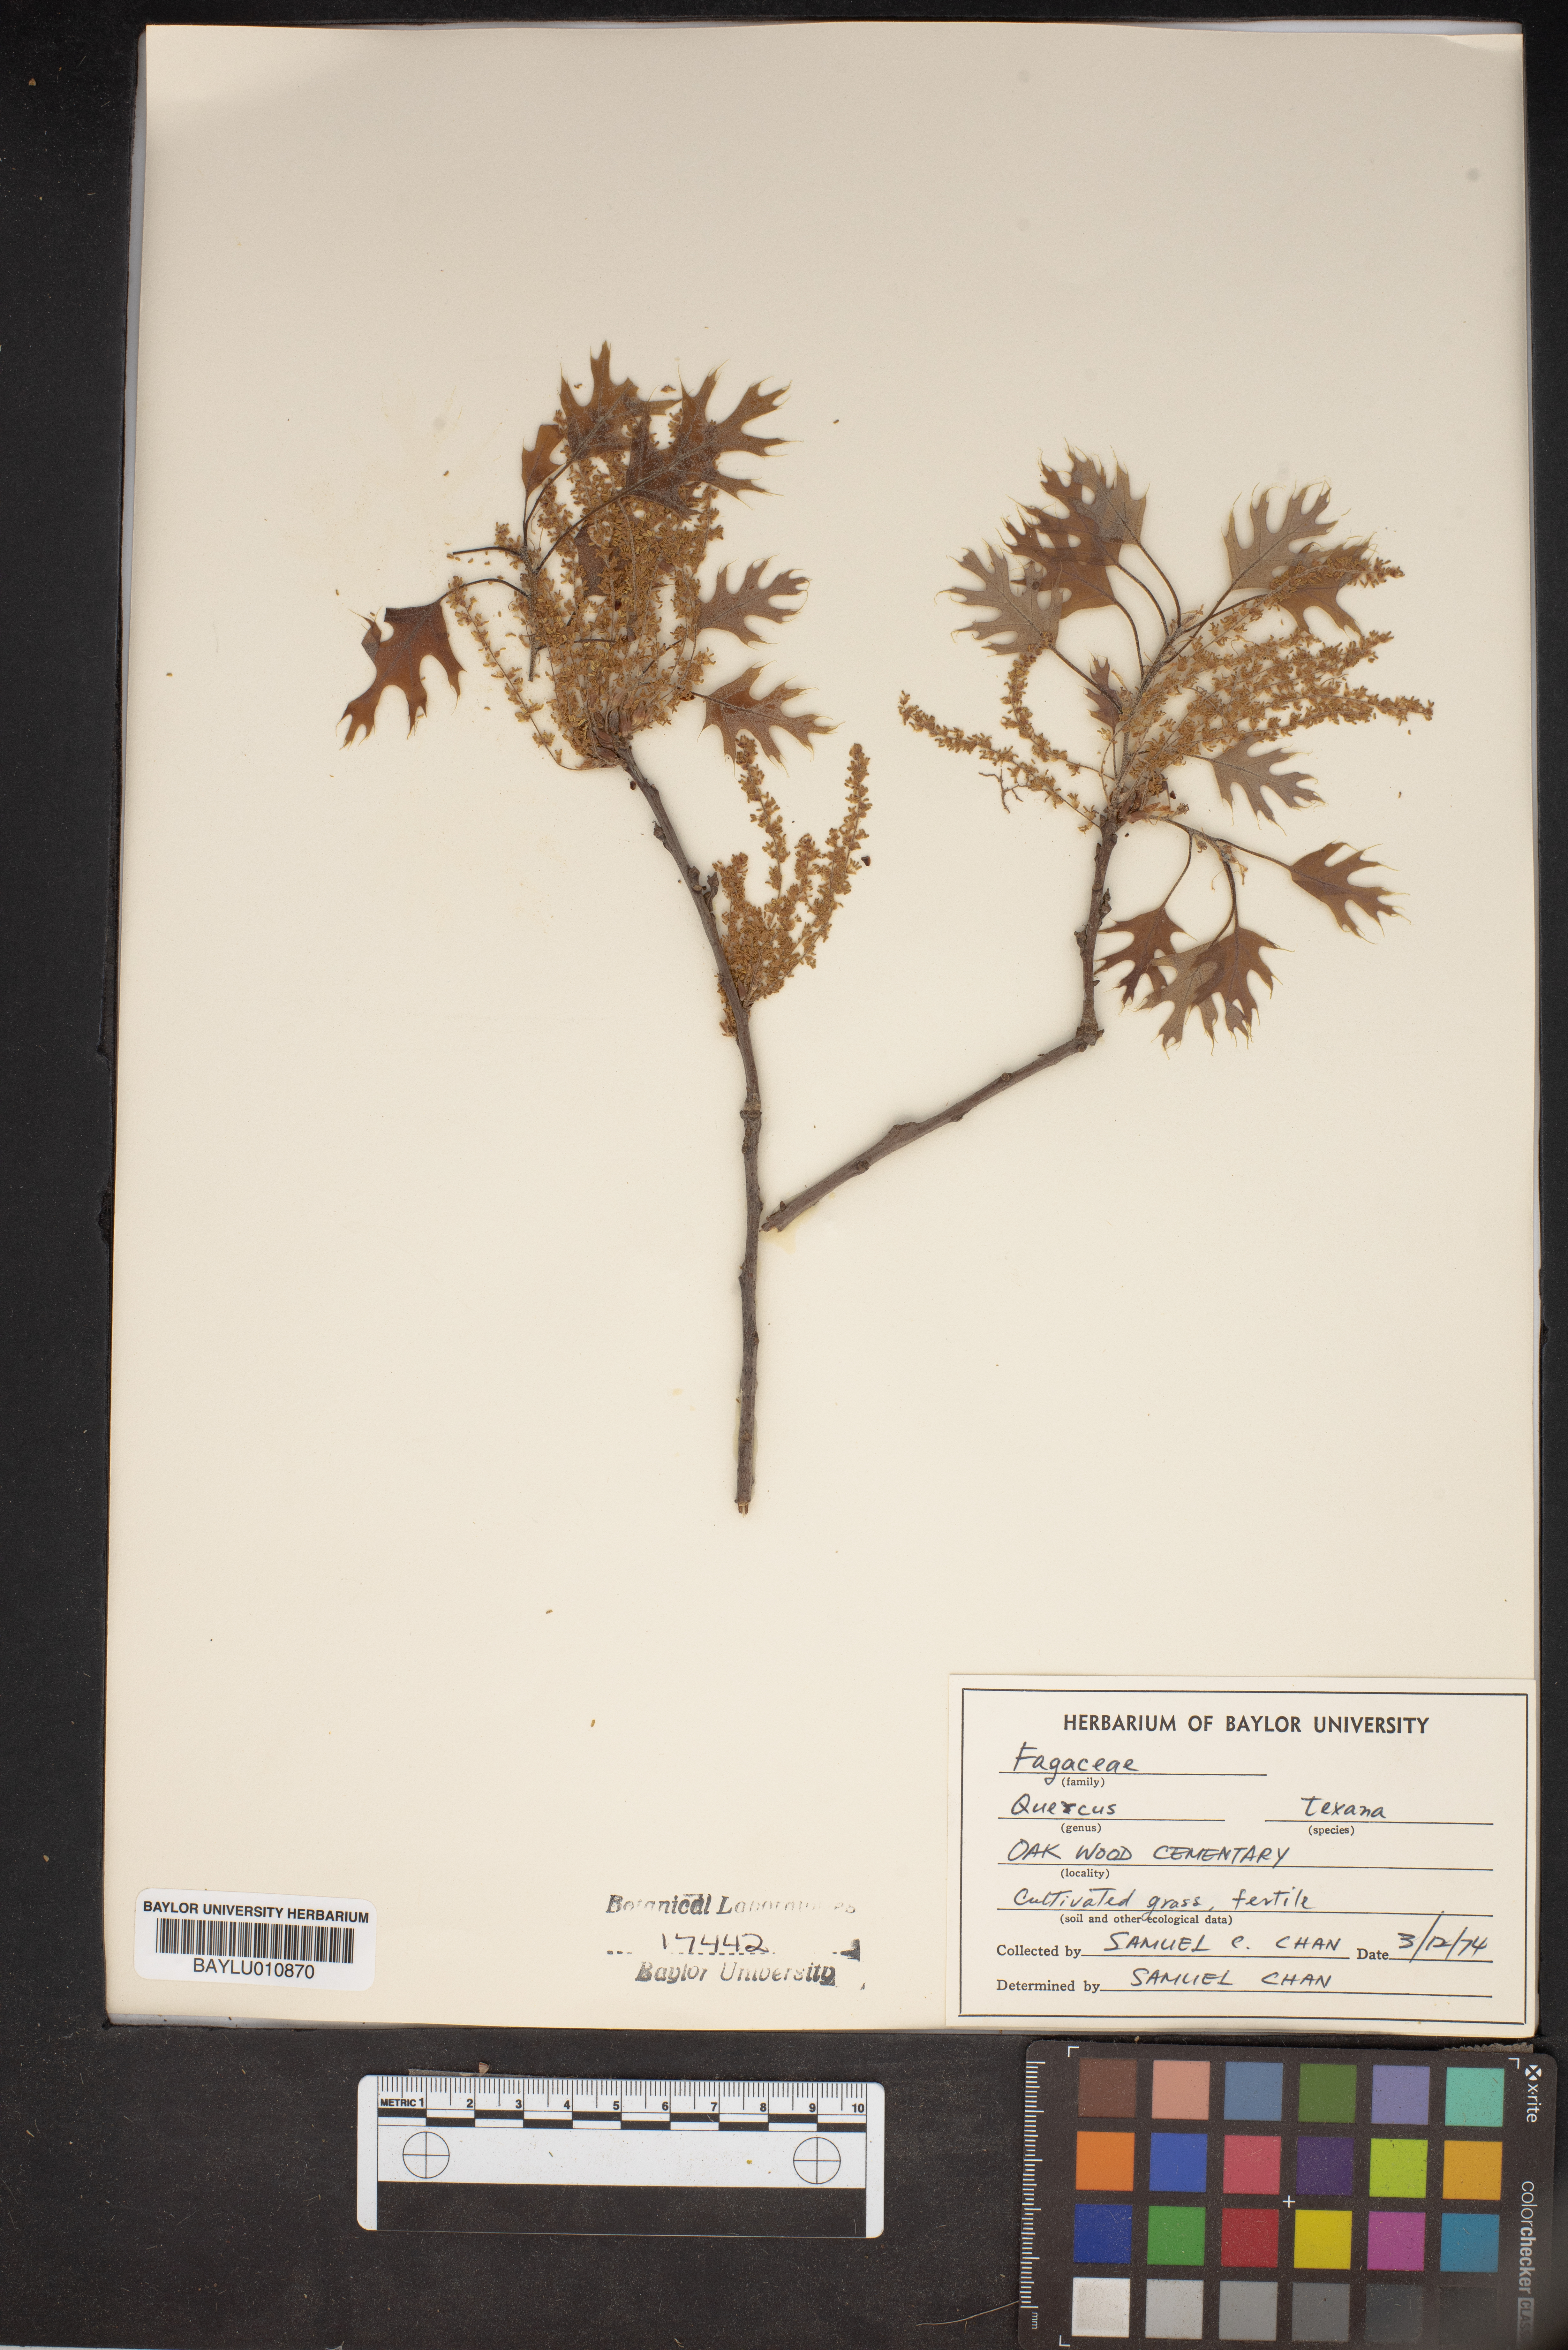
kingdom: Plantae
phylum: Tracheophyta
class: Magnoliopsida
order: Fagales
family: Fagaceae
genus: Quercus
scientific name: Quercus texana
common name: Nuttall oak
